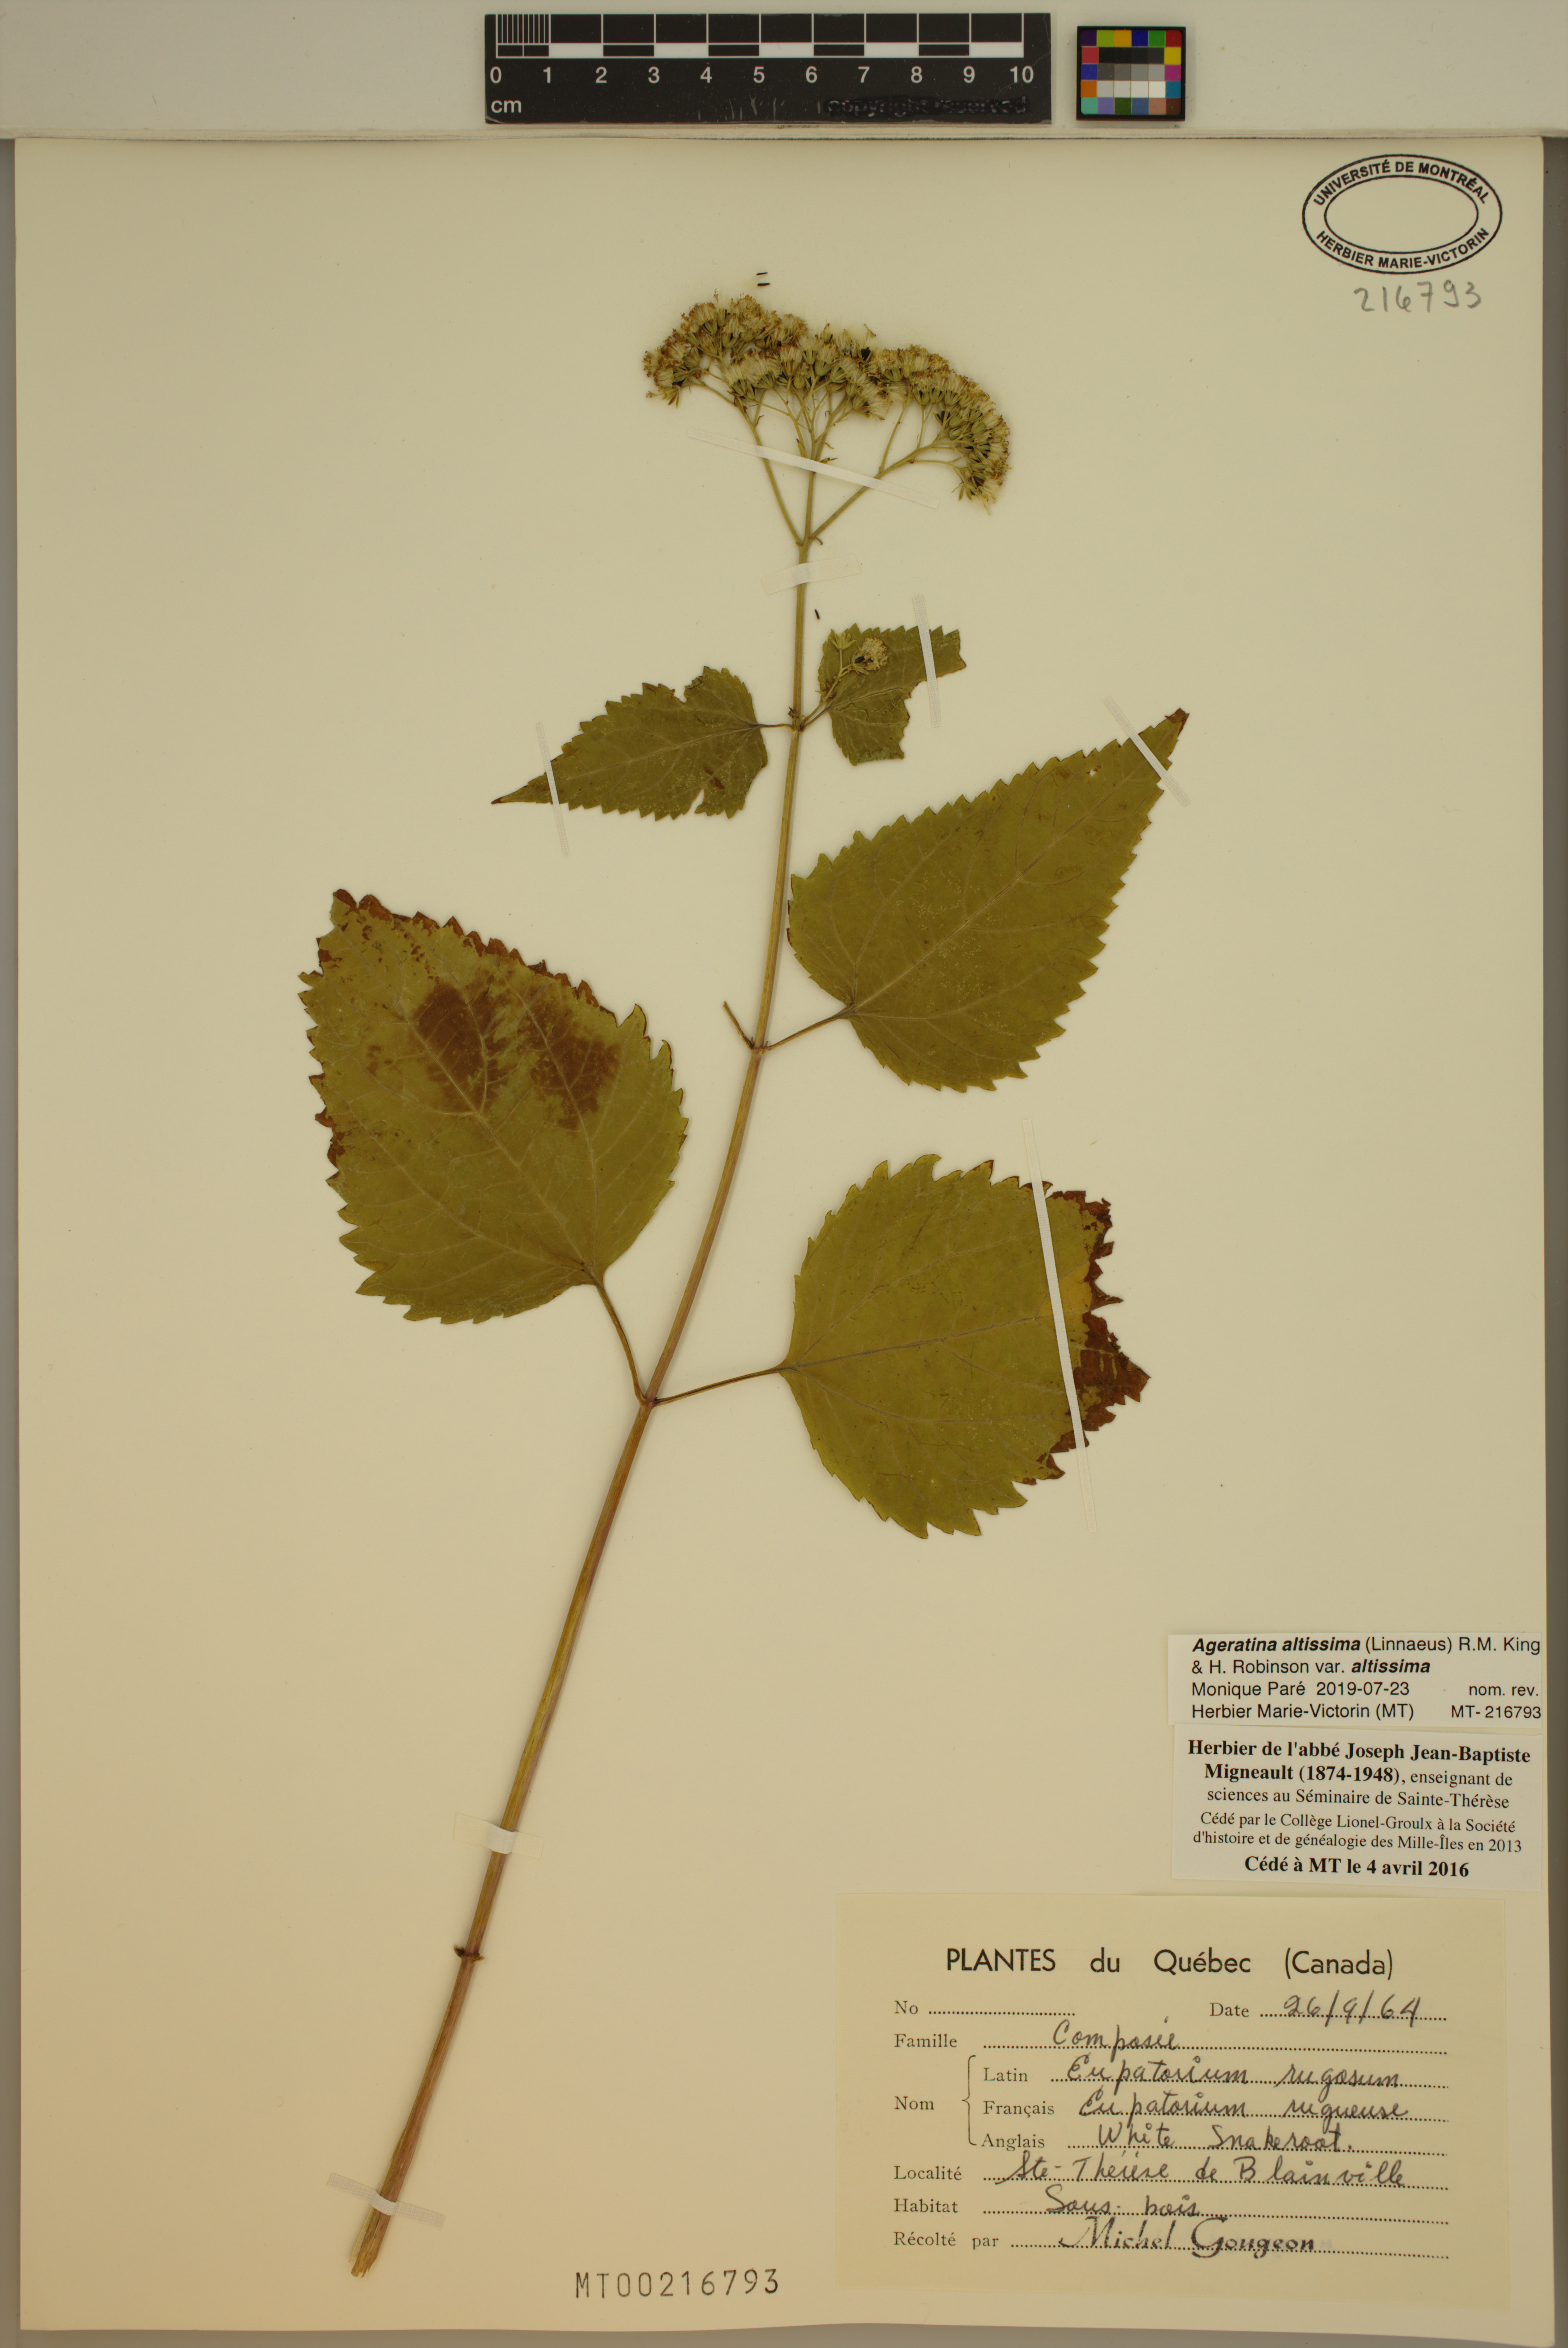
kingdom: Plantae
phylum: Tracheophyta
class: Magnoliopsida
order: Asterales
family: Asteraceae
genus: Ageratina
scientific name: Ageratina altissima
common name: White snakeroot
